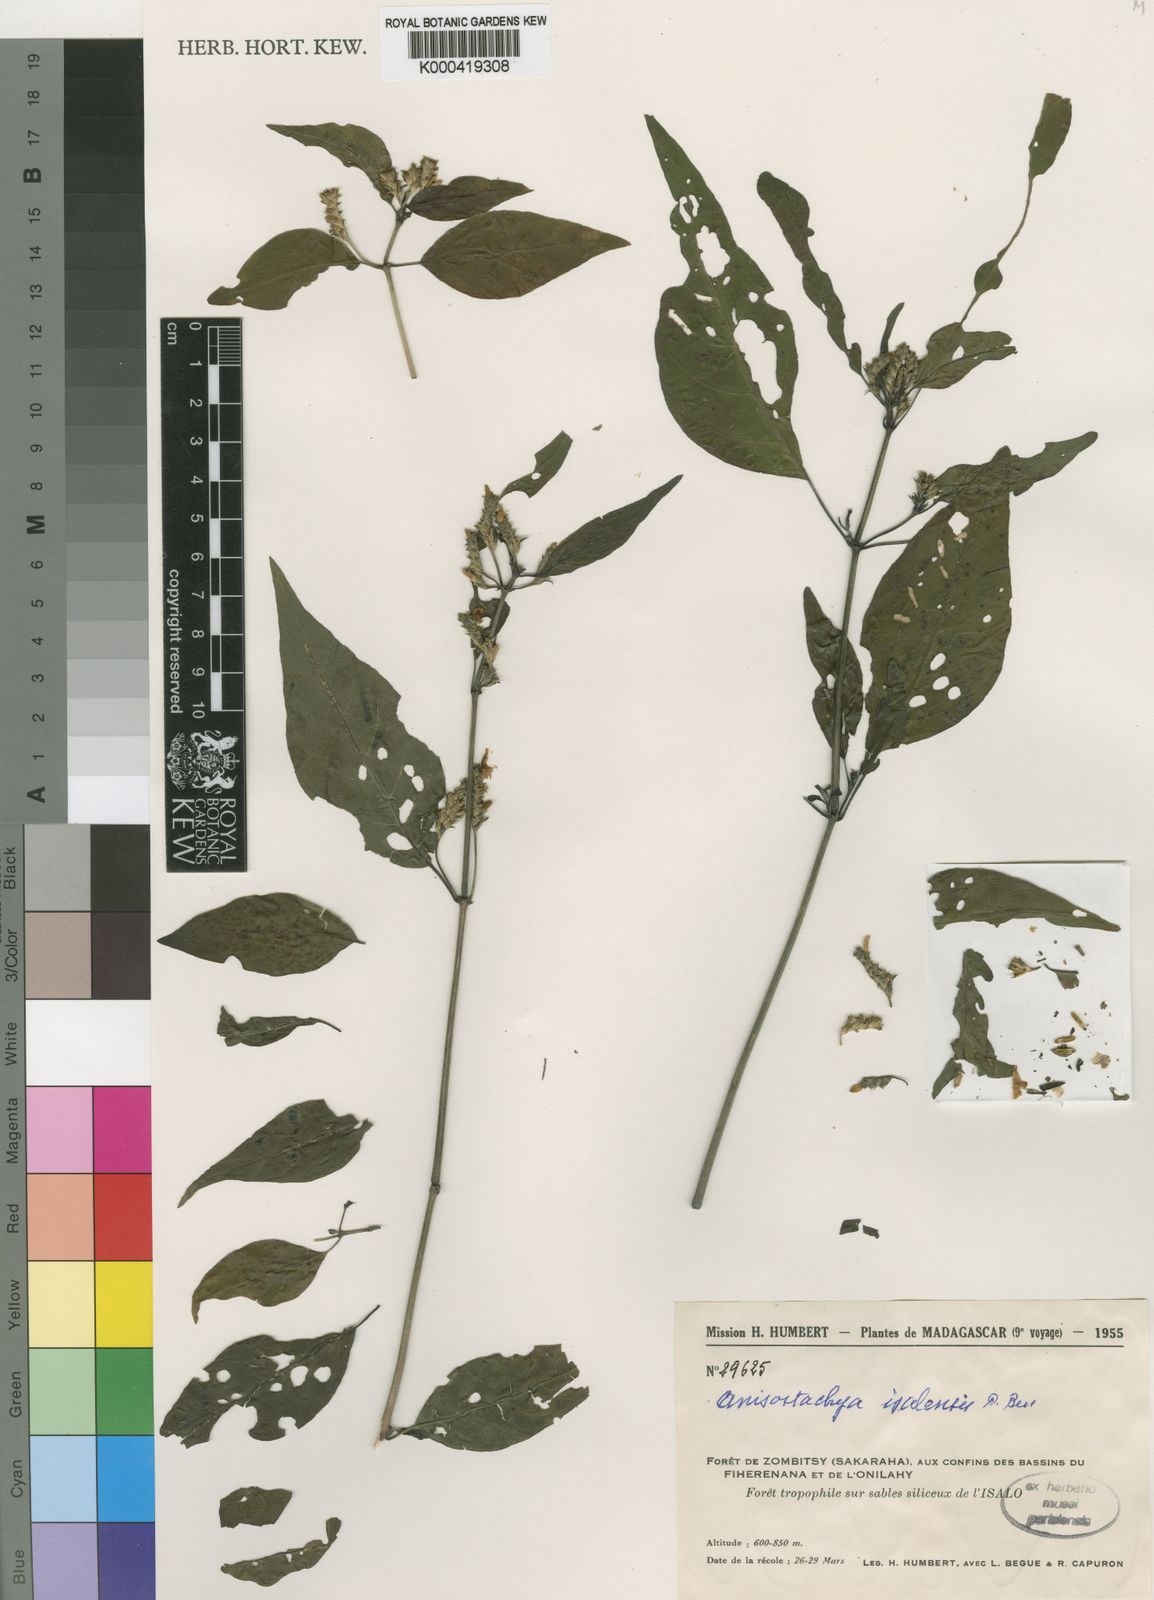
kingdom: Plantae
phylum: Tracheophyta
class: Magnoliopsida
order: Lamiales
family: Acanthaceae
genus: Justicia
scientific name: Justicia
